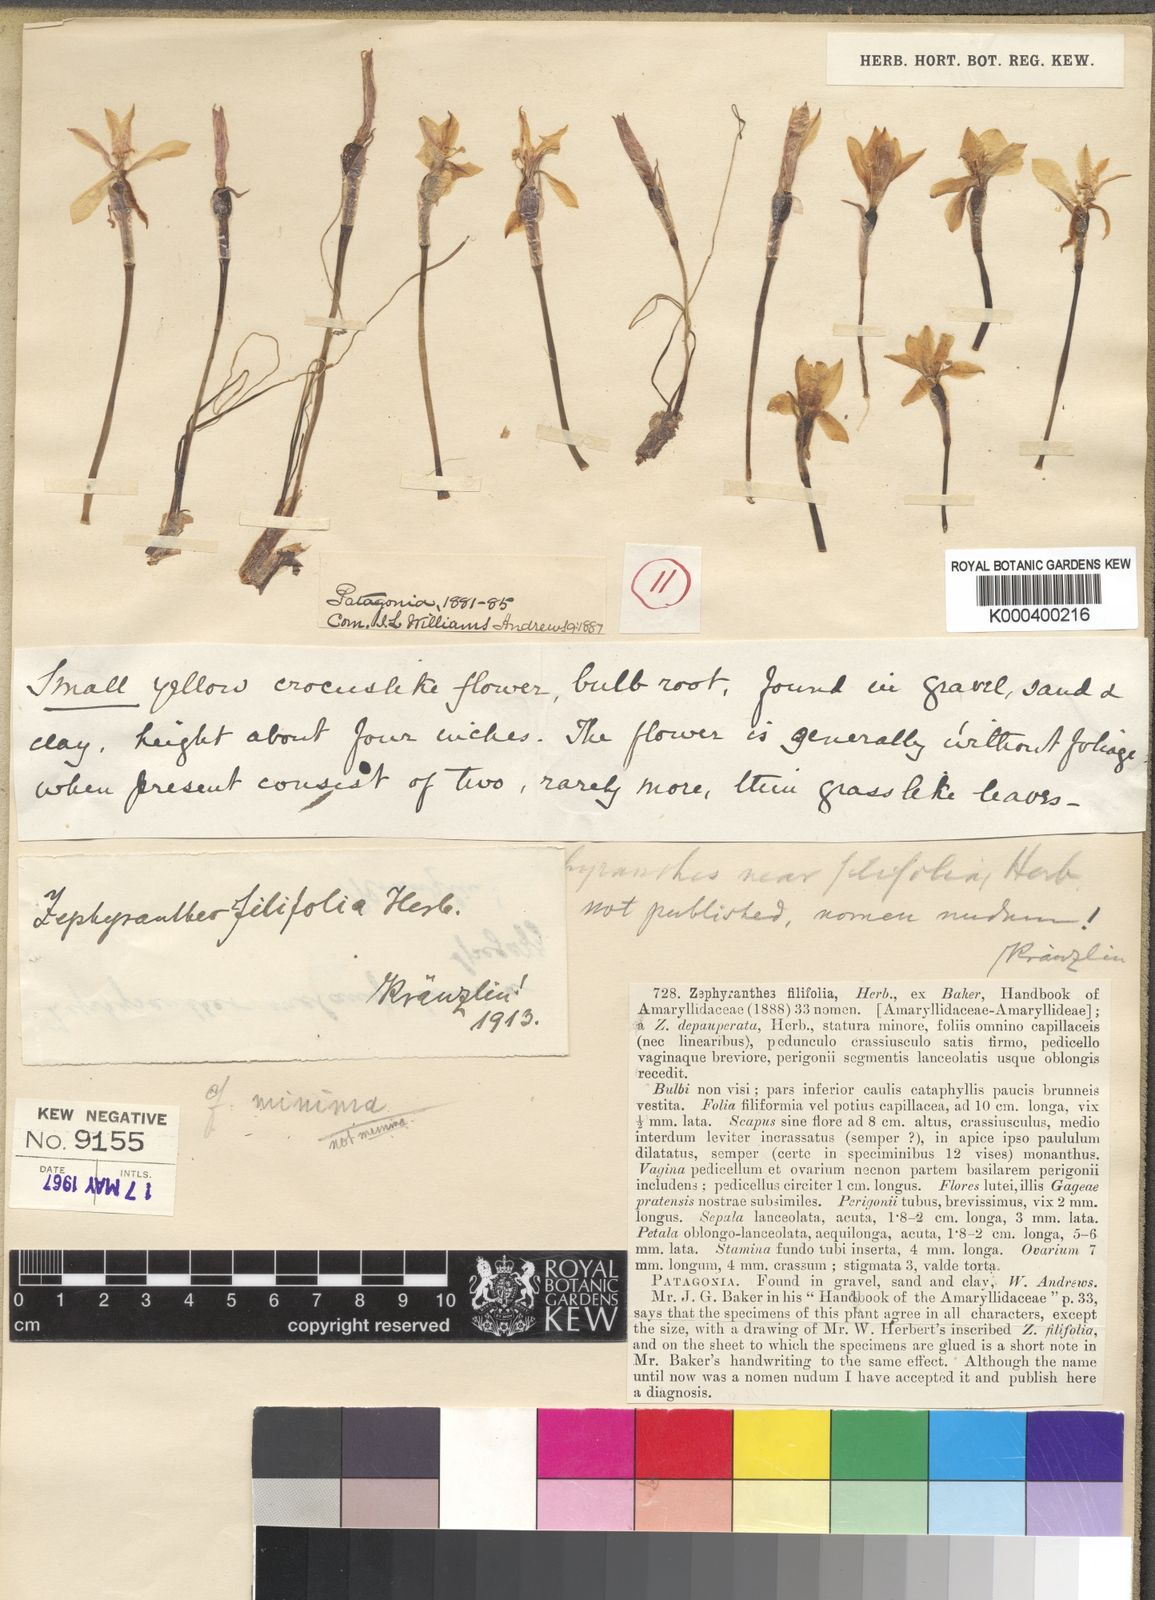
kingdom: Plantae
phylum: Tracheophyta
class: Liliopsida
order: Asparagales
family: Amaryllidaceae
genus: Zephyranthes
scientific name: Zephyranthes filifolia
